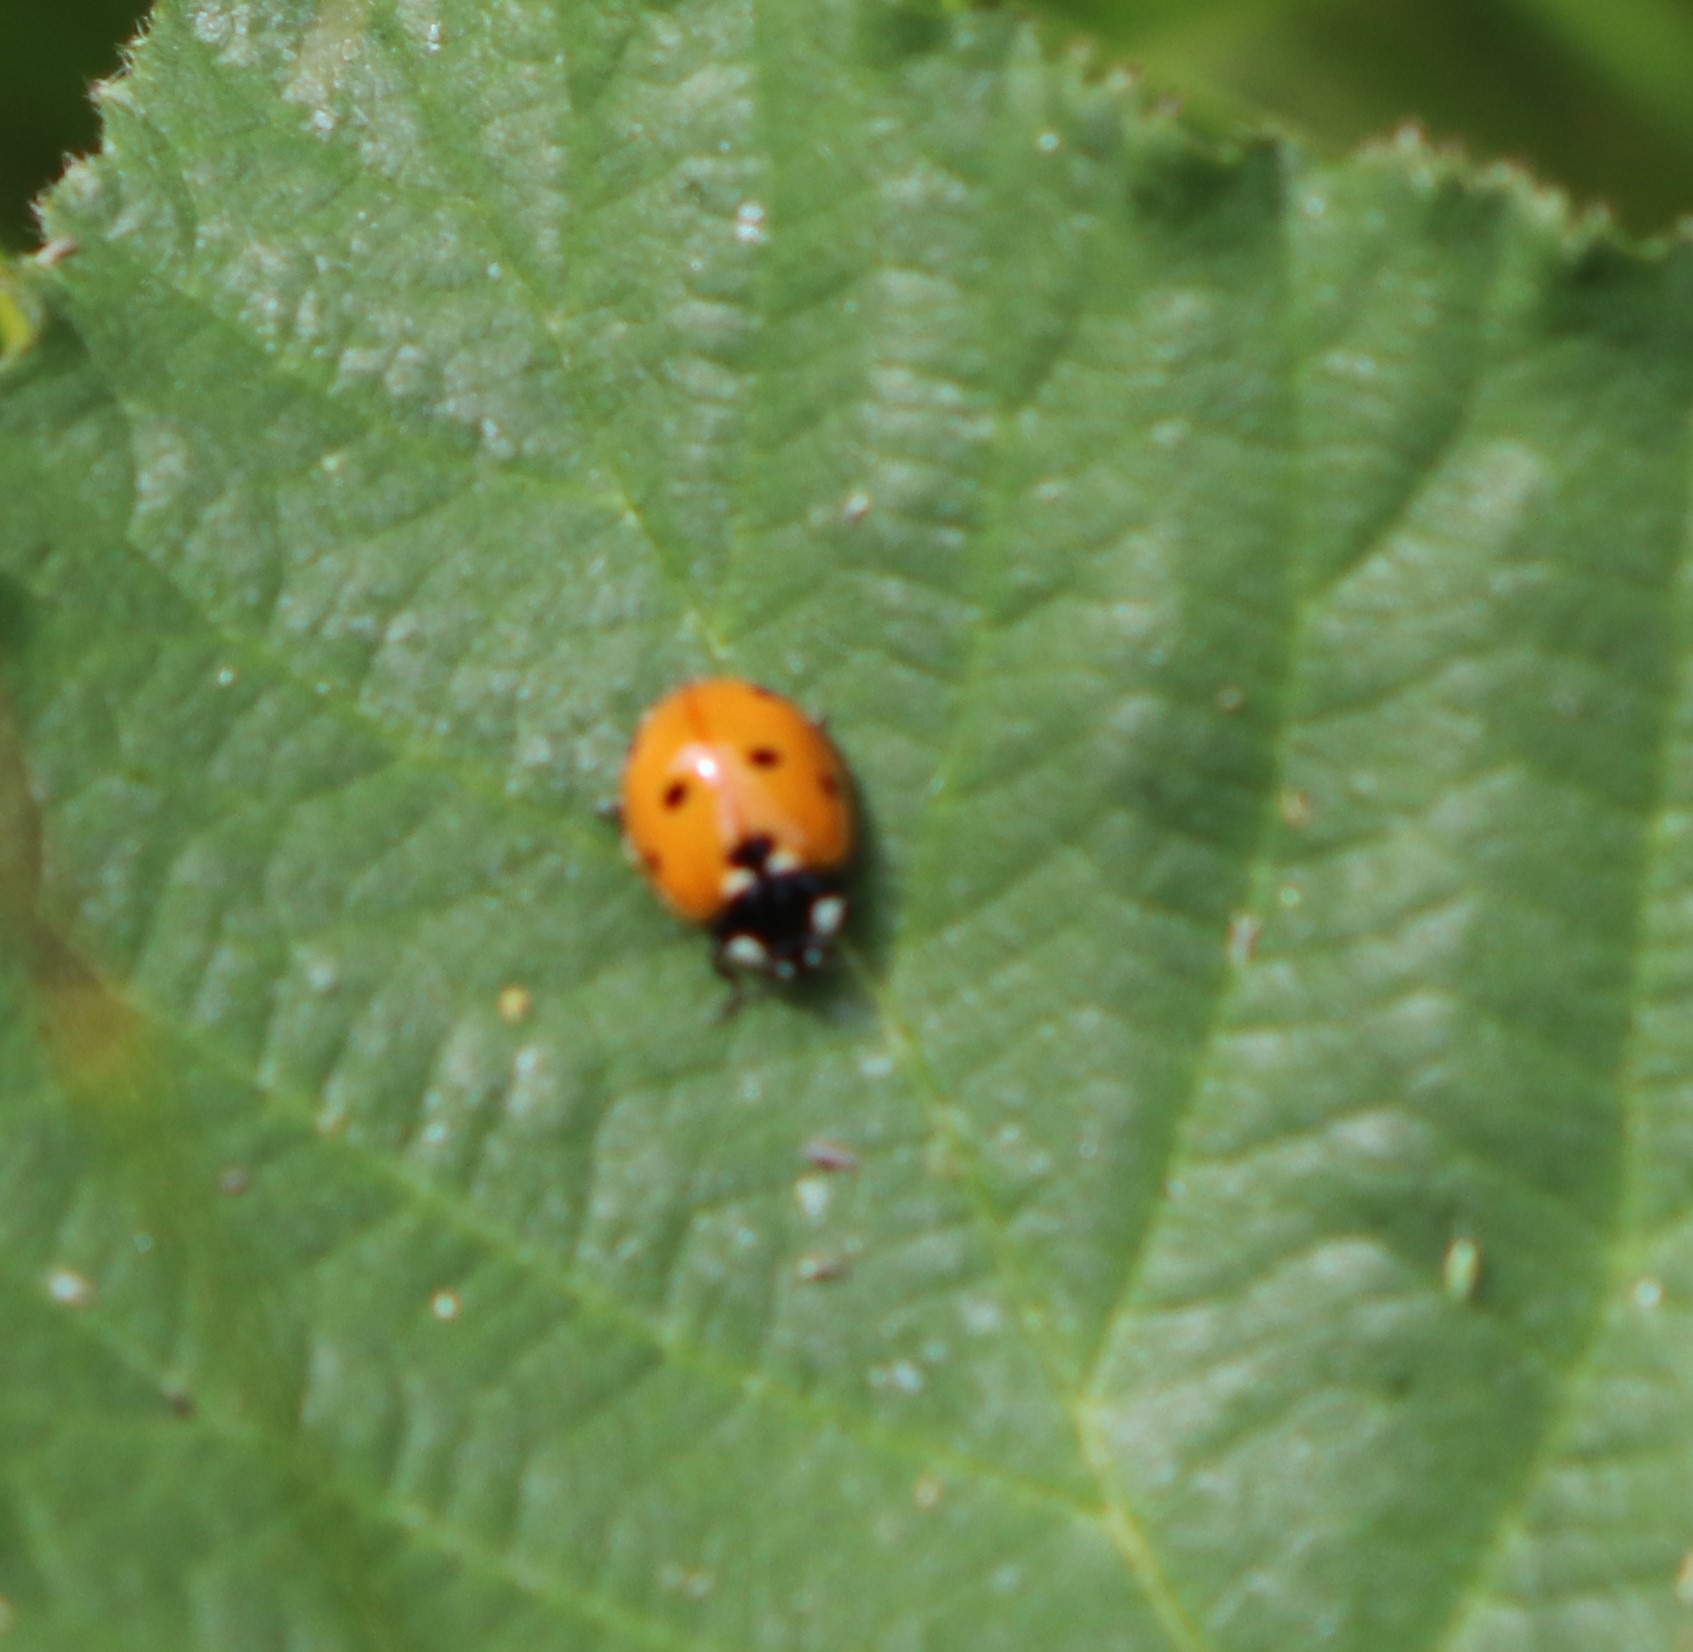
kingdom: Animalia
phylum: Arthropoda
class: Insecta
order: Coleoptera
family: Coccinellidae
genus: Coccinella
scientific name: Coccinella septempunctata
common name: Syvplettet mariehøne
